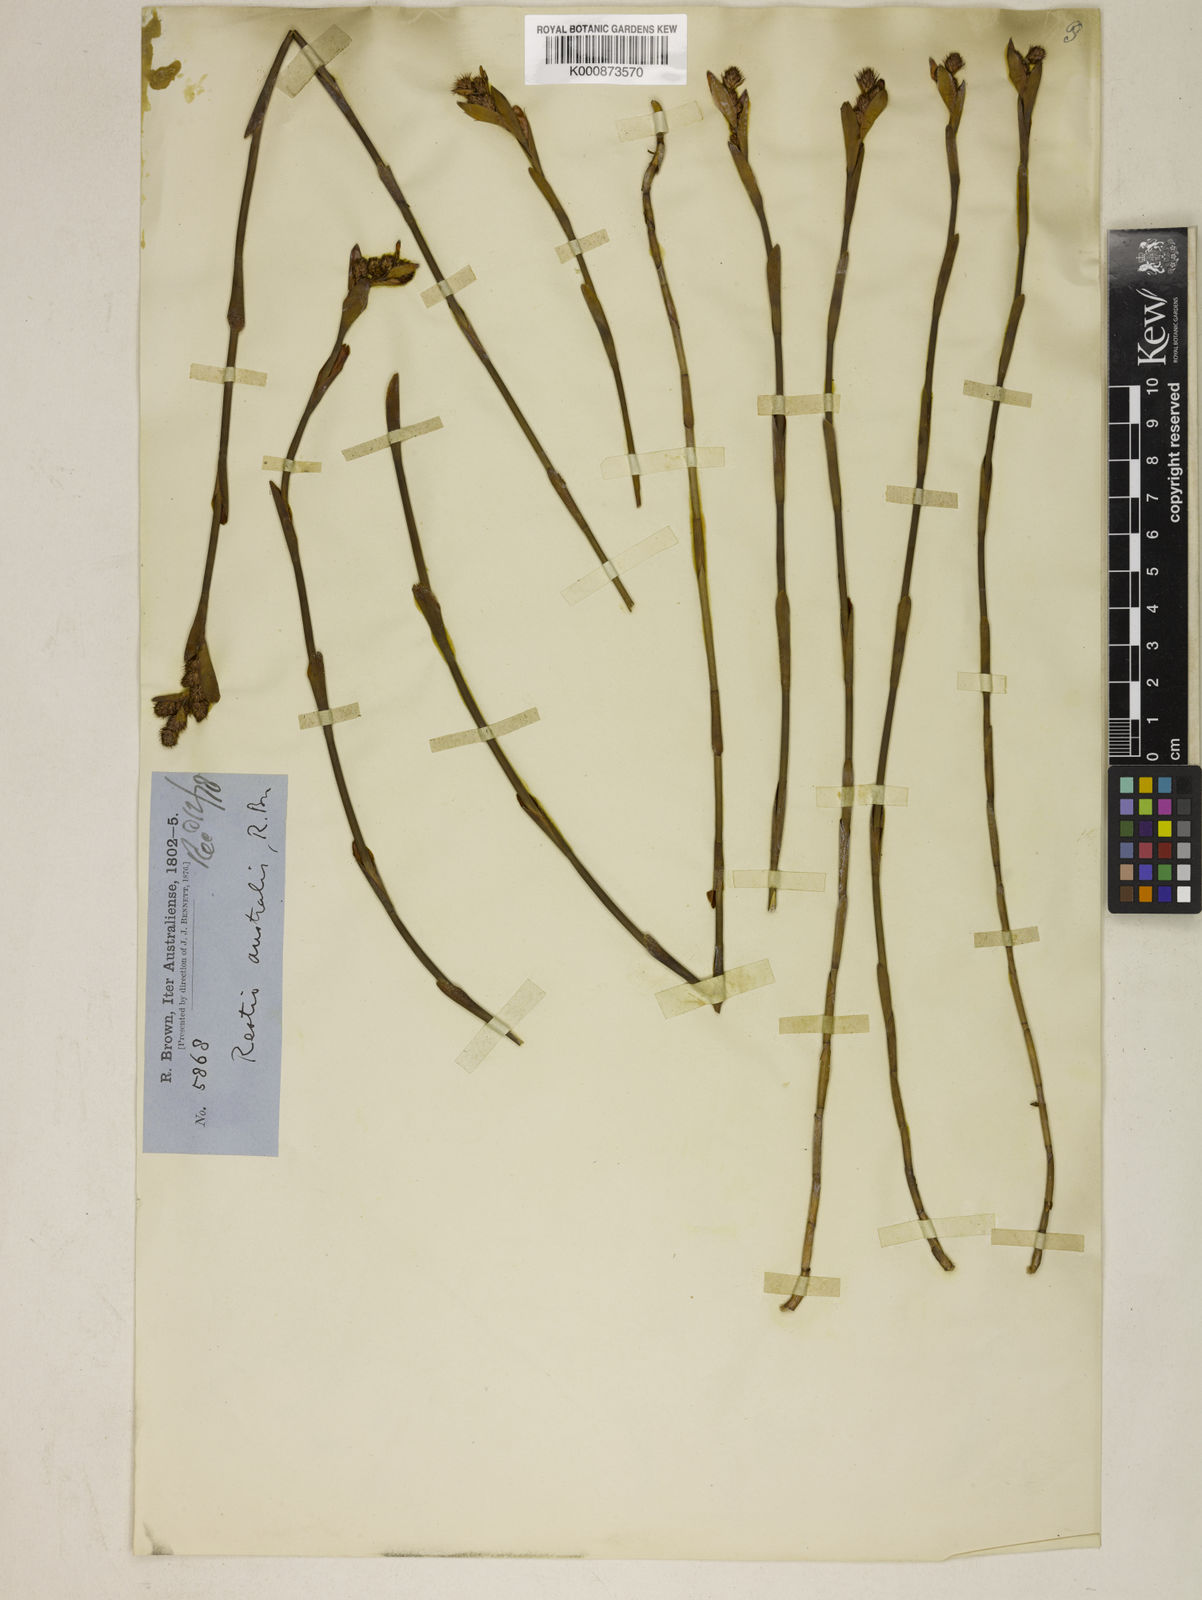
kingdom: Plantae
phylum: Tracheophyta
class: Liliopsida
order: Poales
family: Restionaceae
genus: Baloskion
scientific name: Baloskion australe
